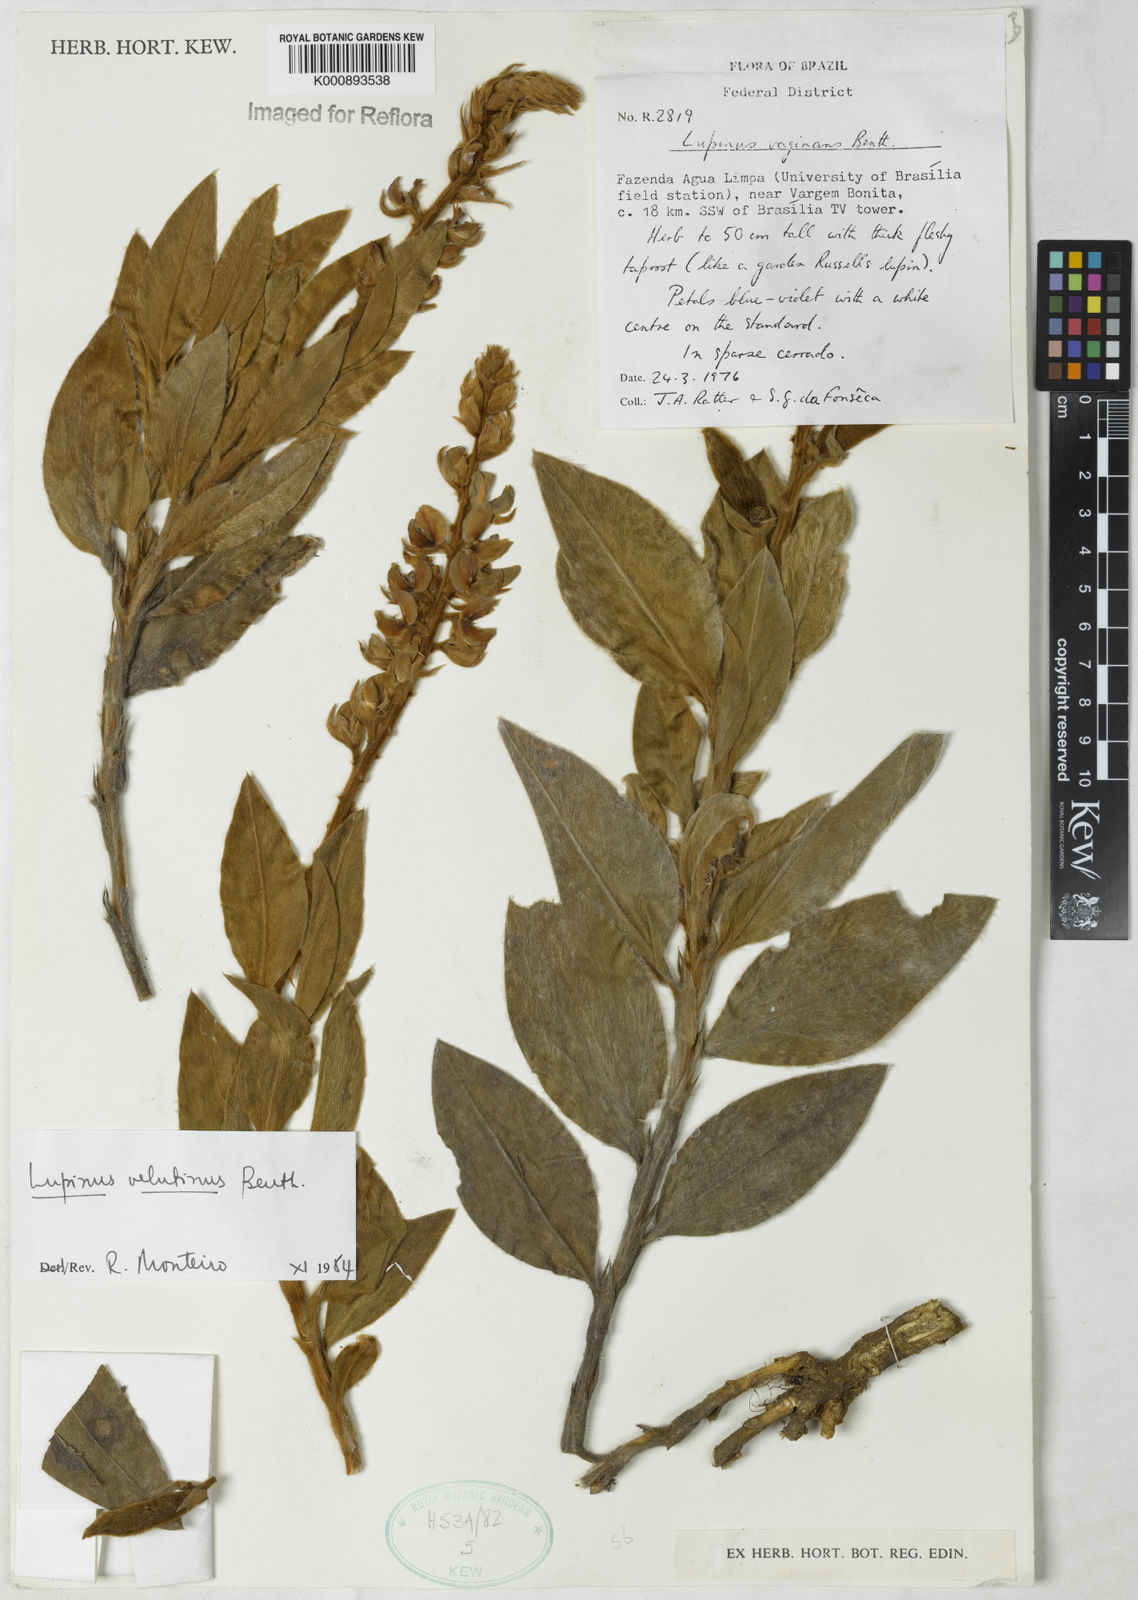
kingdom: Plantae
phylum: Tracheophyta
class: Magnoliopsida
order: Fabales
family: Fabaceae
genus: Lupinus
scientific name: Lupinus velutinus
